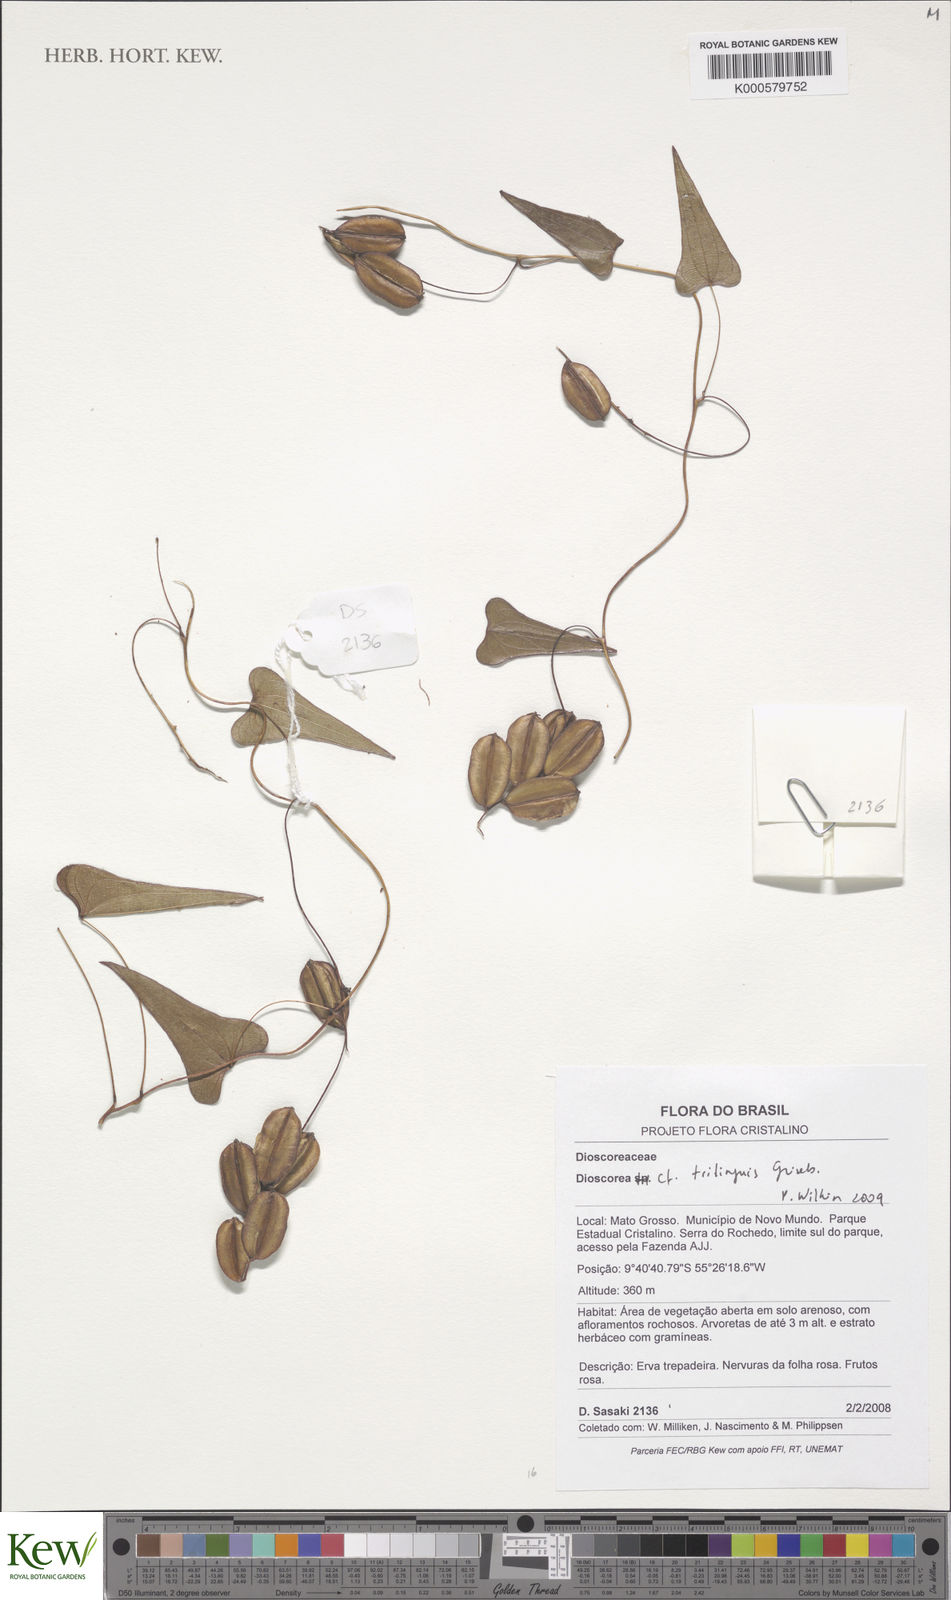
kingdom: Plantae
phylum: Tracheophyta
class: Liliopsida
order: Dioscoreales
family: Dioscoreaceae
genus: Dioscorea
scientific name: Dioscorea
